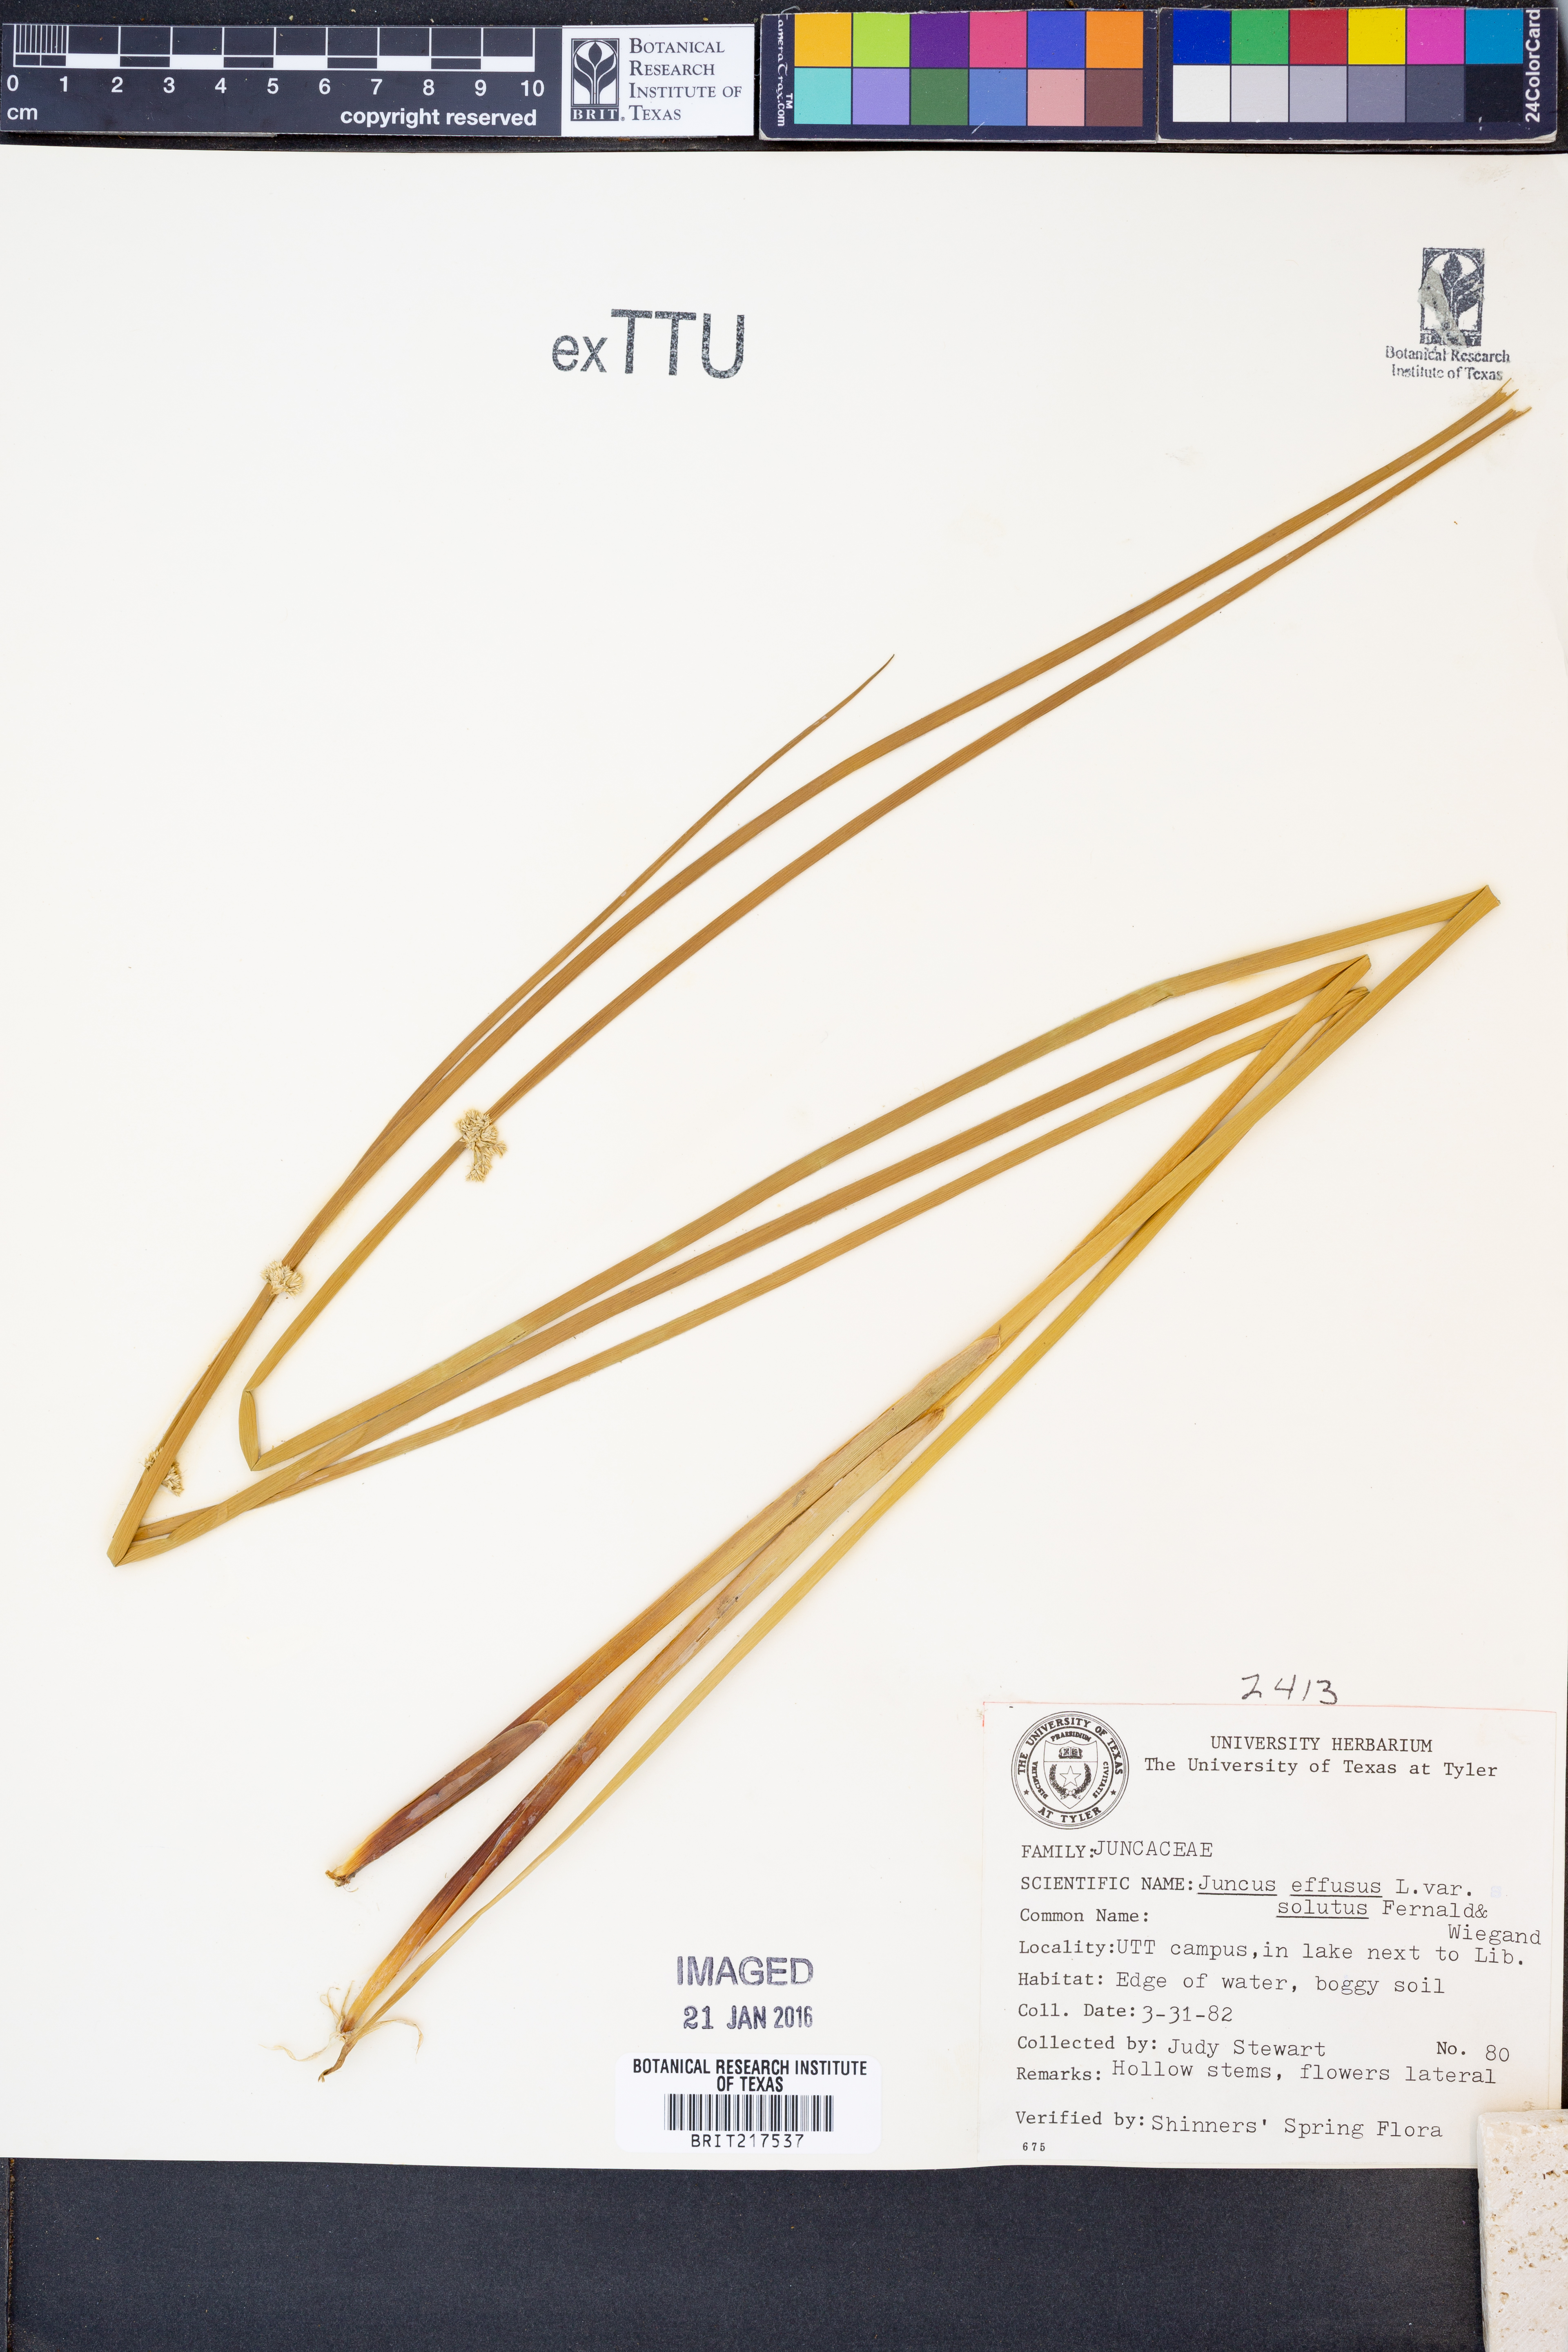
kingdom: Plantae
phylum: Tracheophyta
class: Liliopsida
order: Poales
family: Juncaceae
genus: Juncus
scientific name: Juncus effusus
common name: Soft rush
